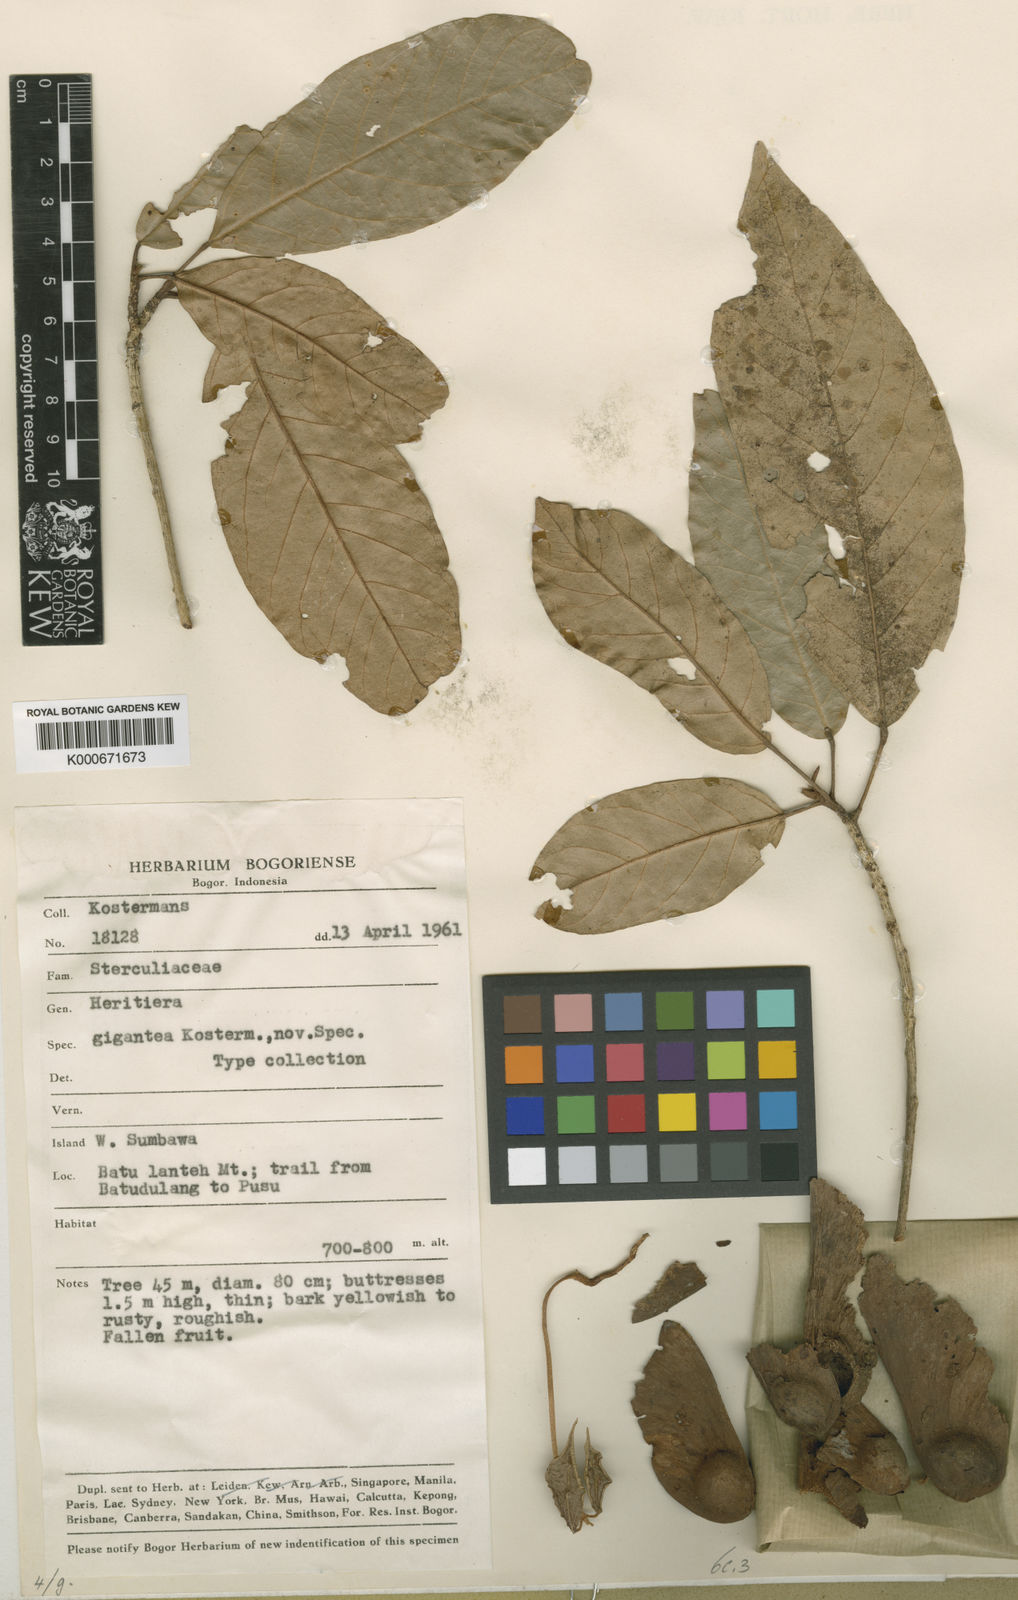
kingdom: Plantae
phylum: Tracheophyta
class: Magnoliopsida
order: Malvales
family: Malvaceae
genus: Heritiera
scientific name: Heritiera gigantea
